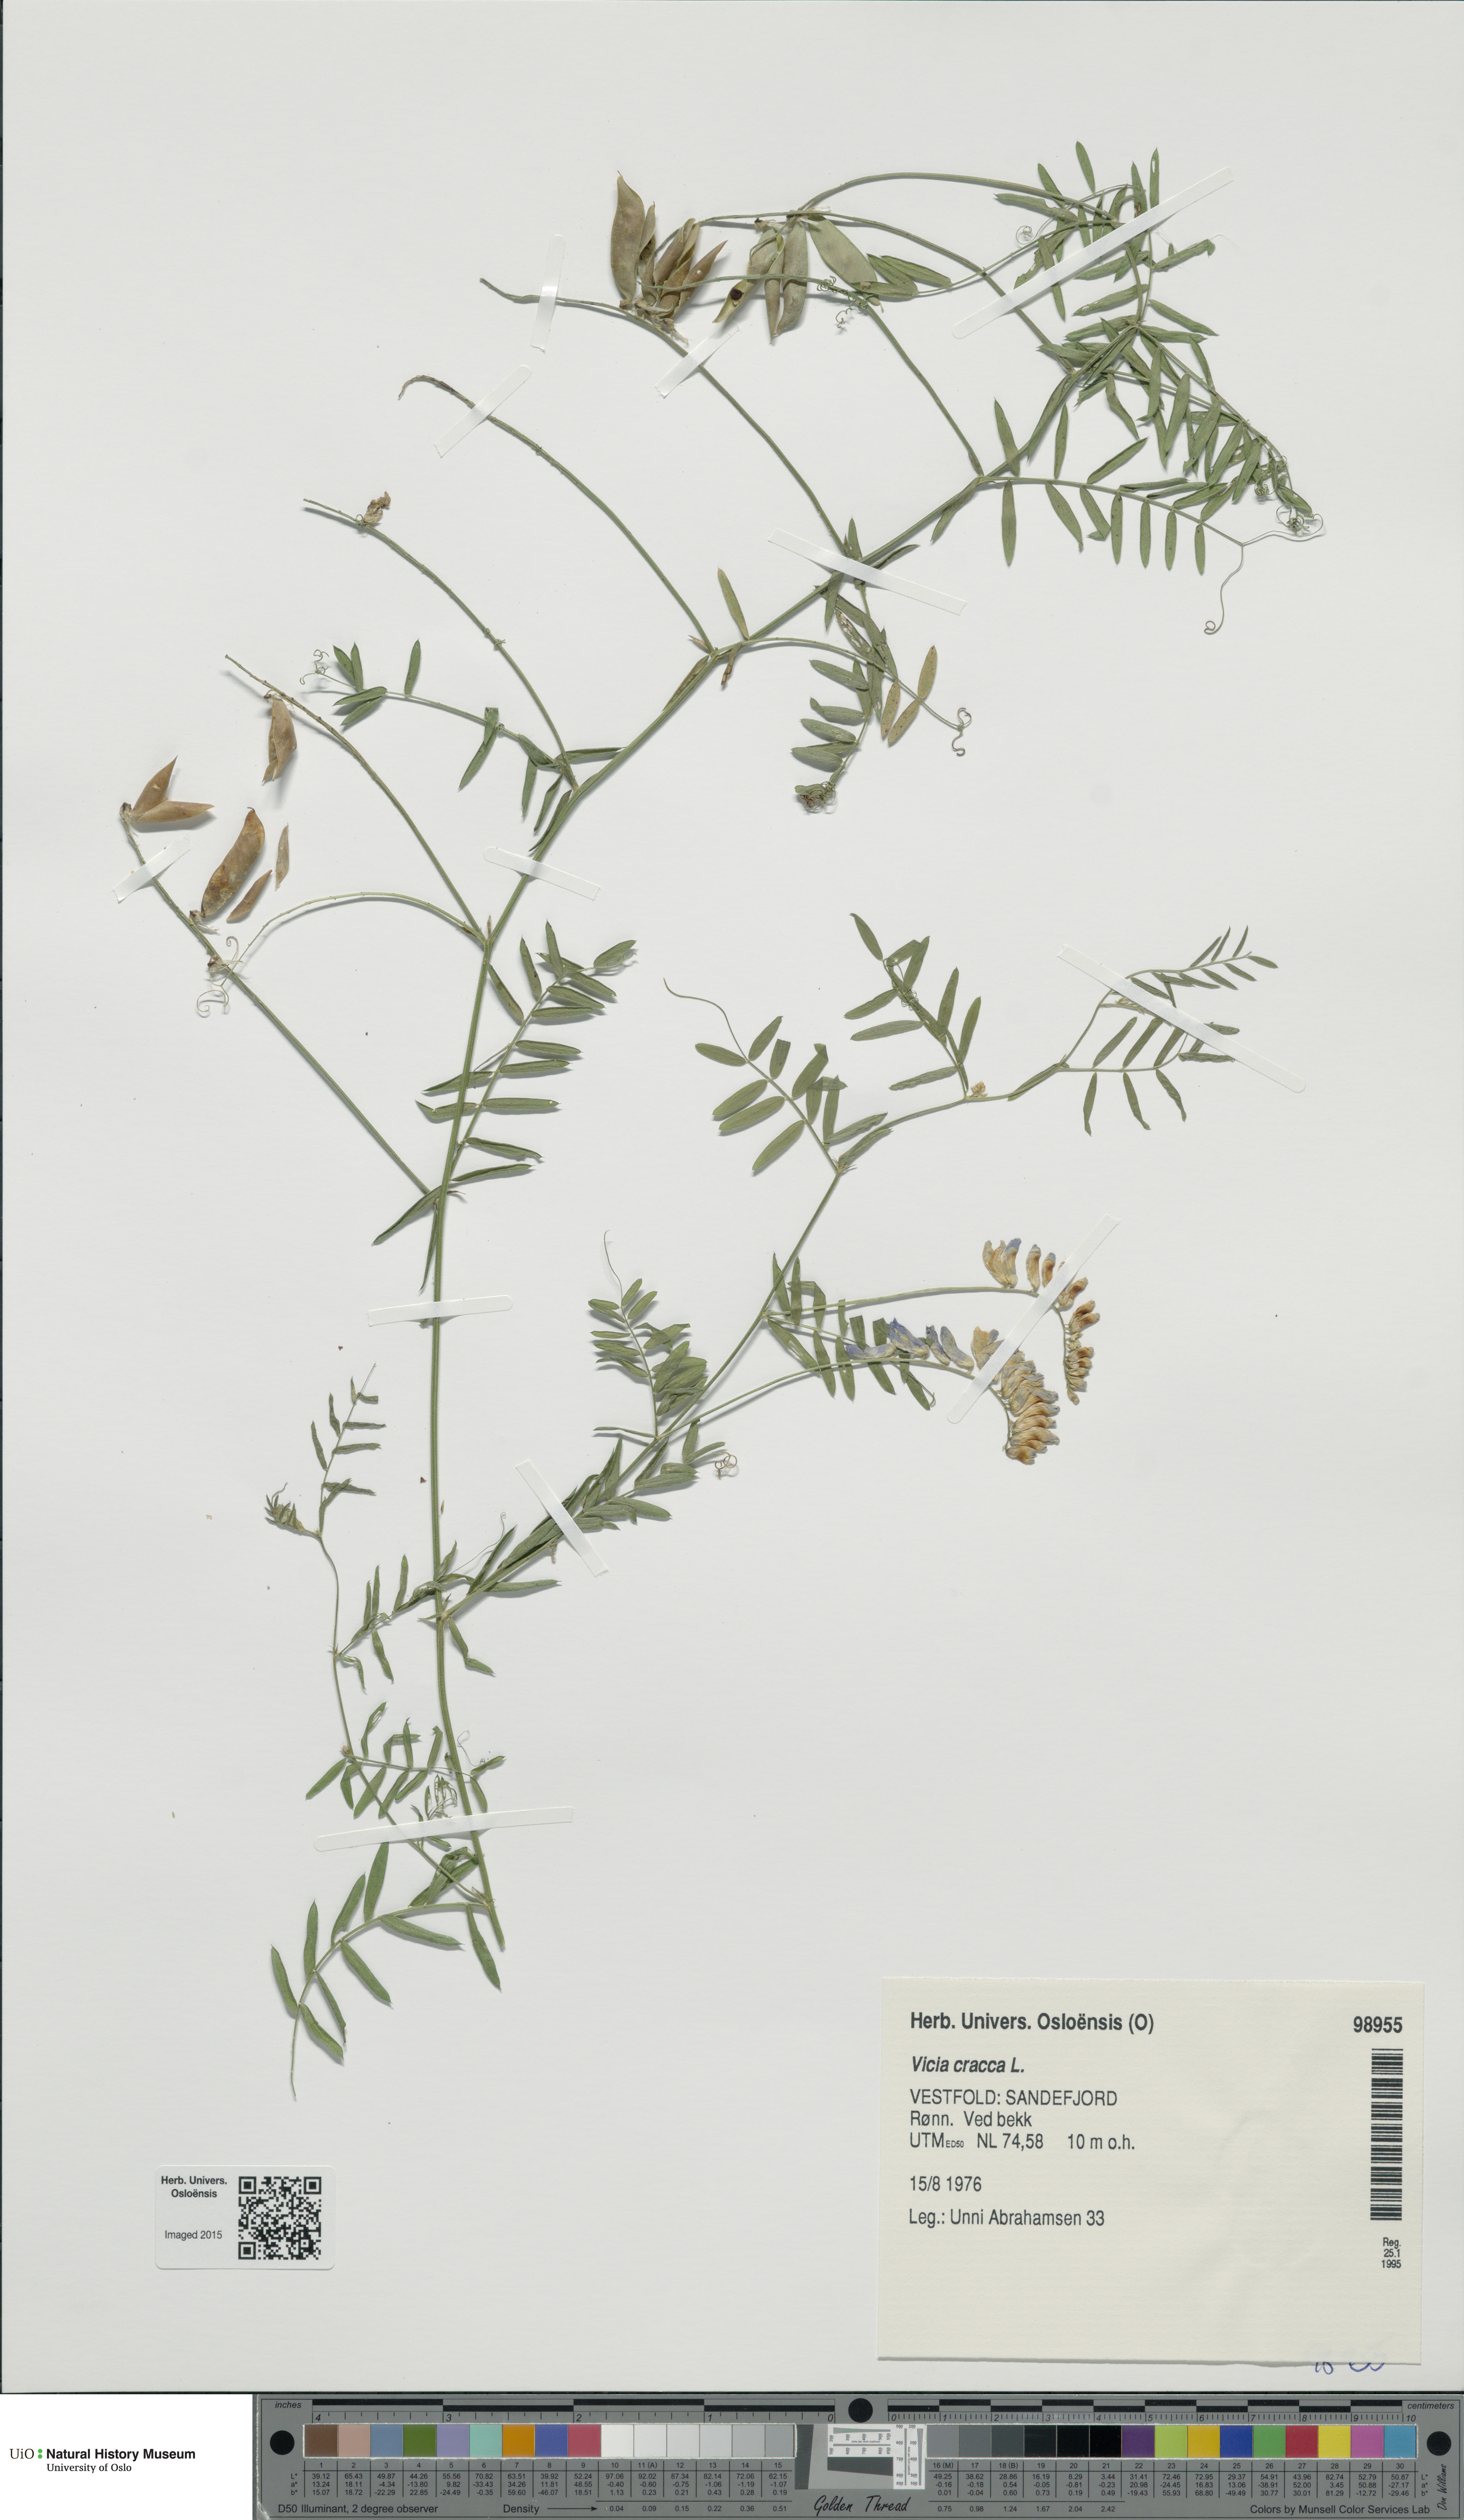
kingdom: Plantae
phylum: Tracheophyta
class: Magnoliopsida
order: Fabales
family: Fabaceae
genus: Vicia
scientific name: Vicia cracca
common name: Bird vetch
